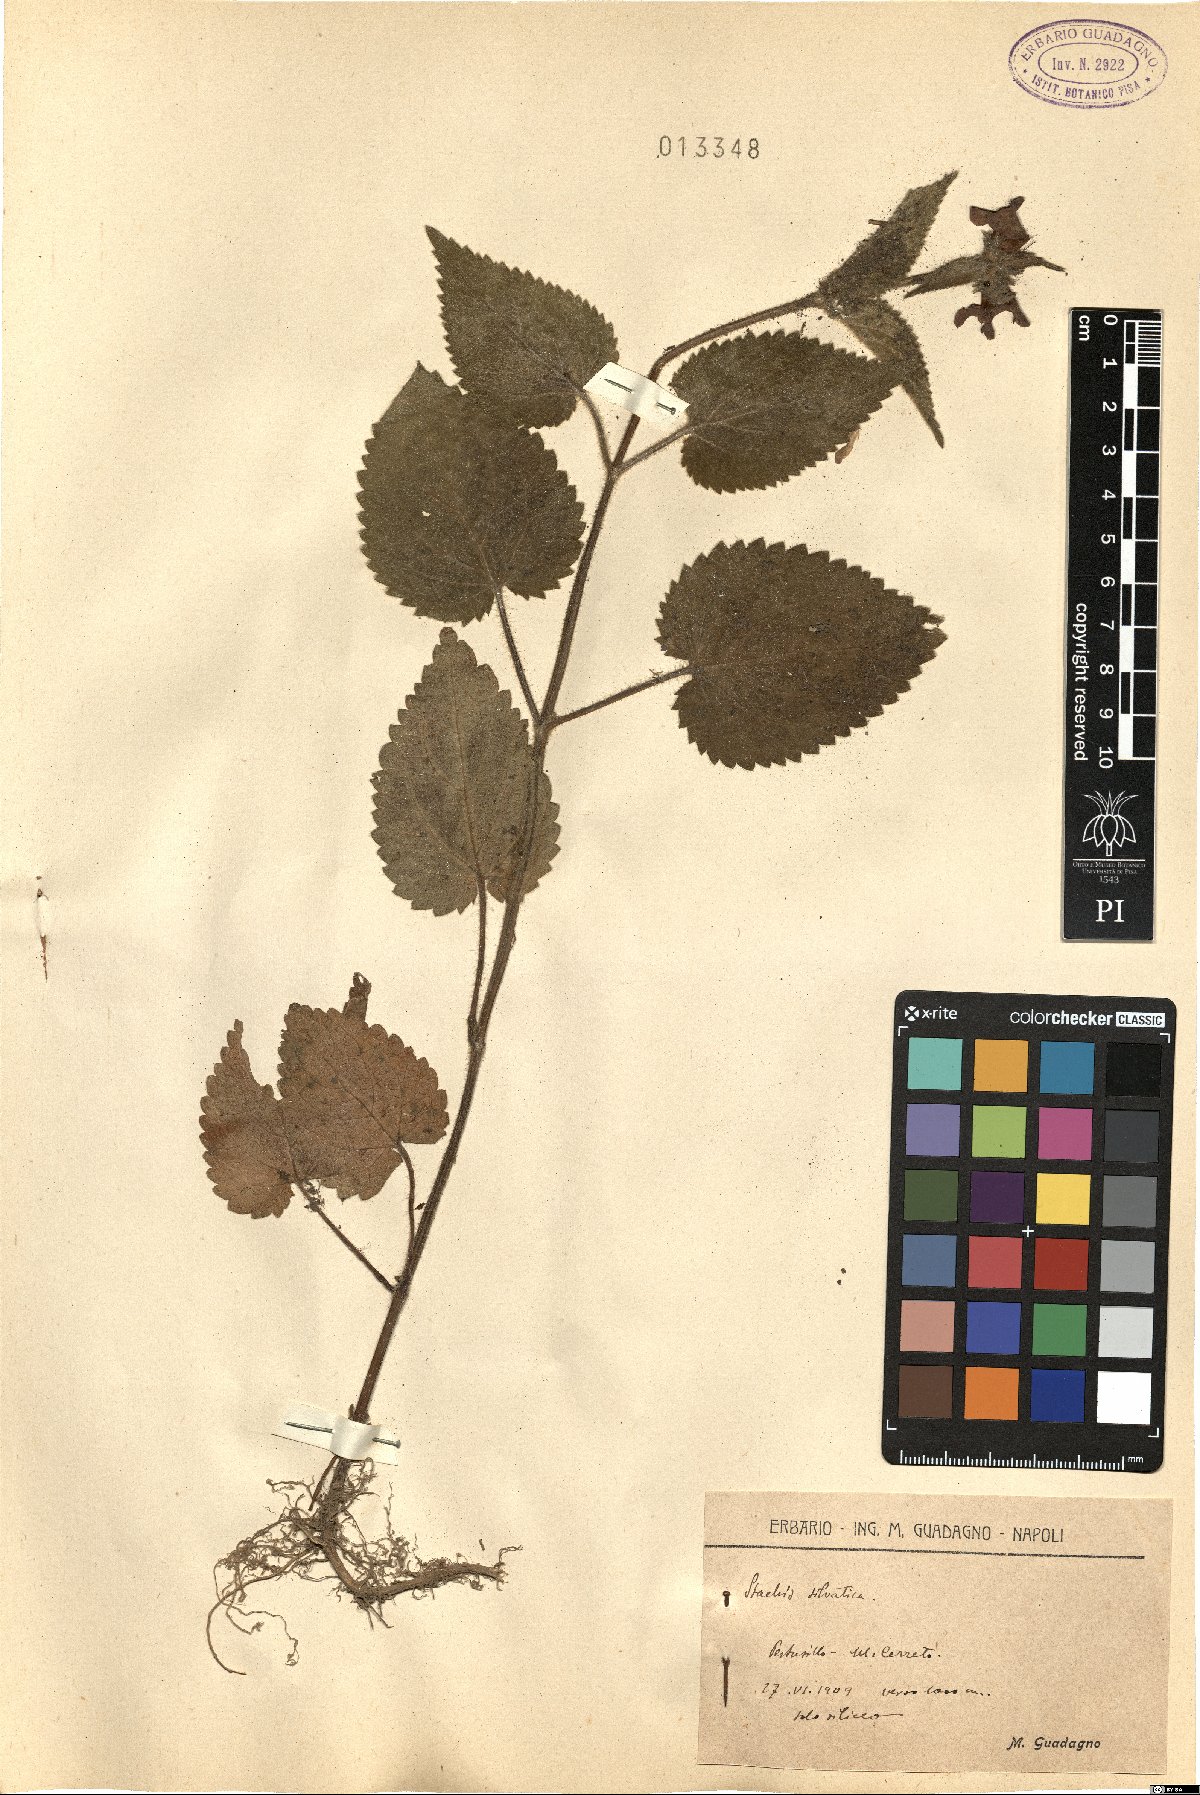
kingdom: Plantae
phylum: Tracheophyta
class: Magnoliopsida
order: Lamiales
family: Lamiaceae
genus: Stachys
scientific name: Stachys sylvatica
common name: Hedge woundwort
